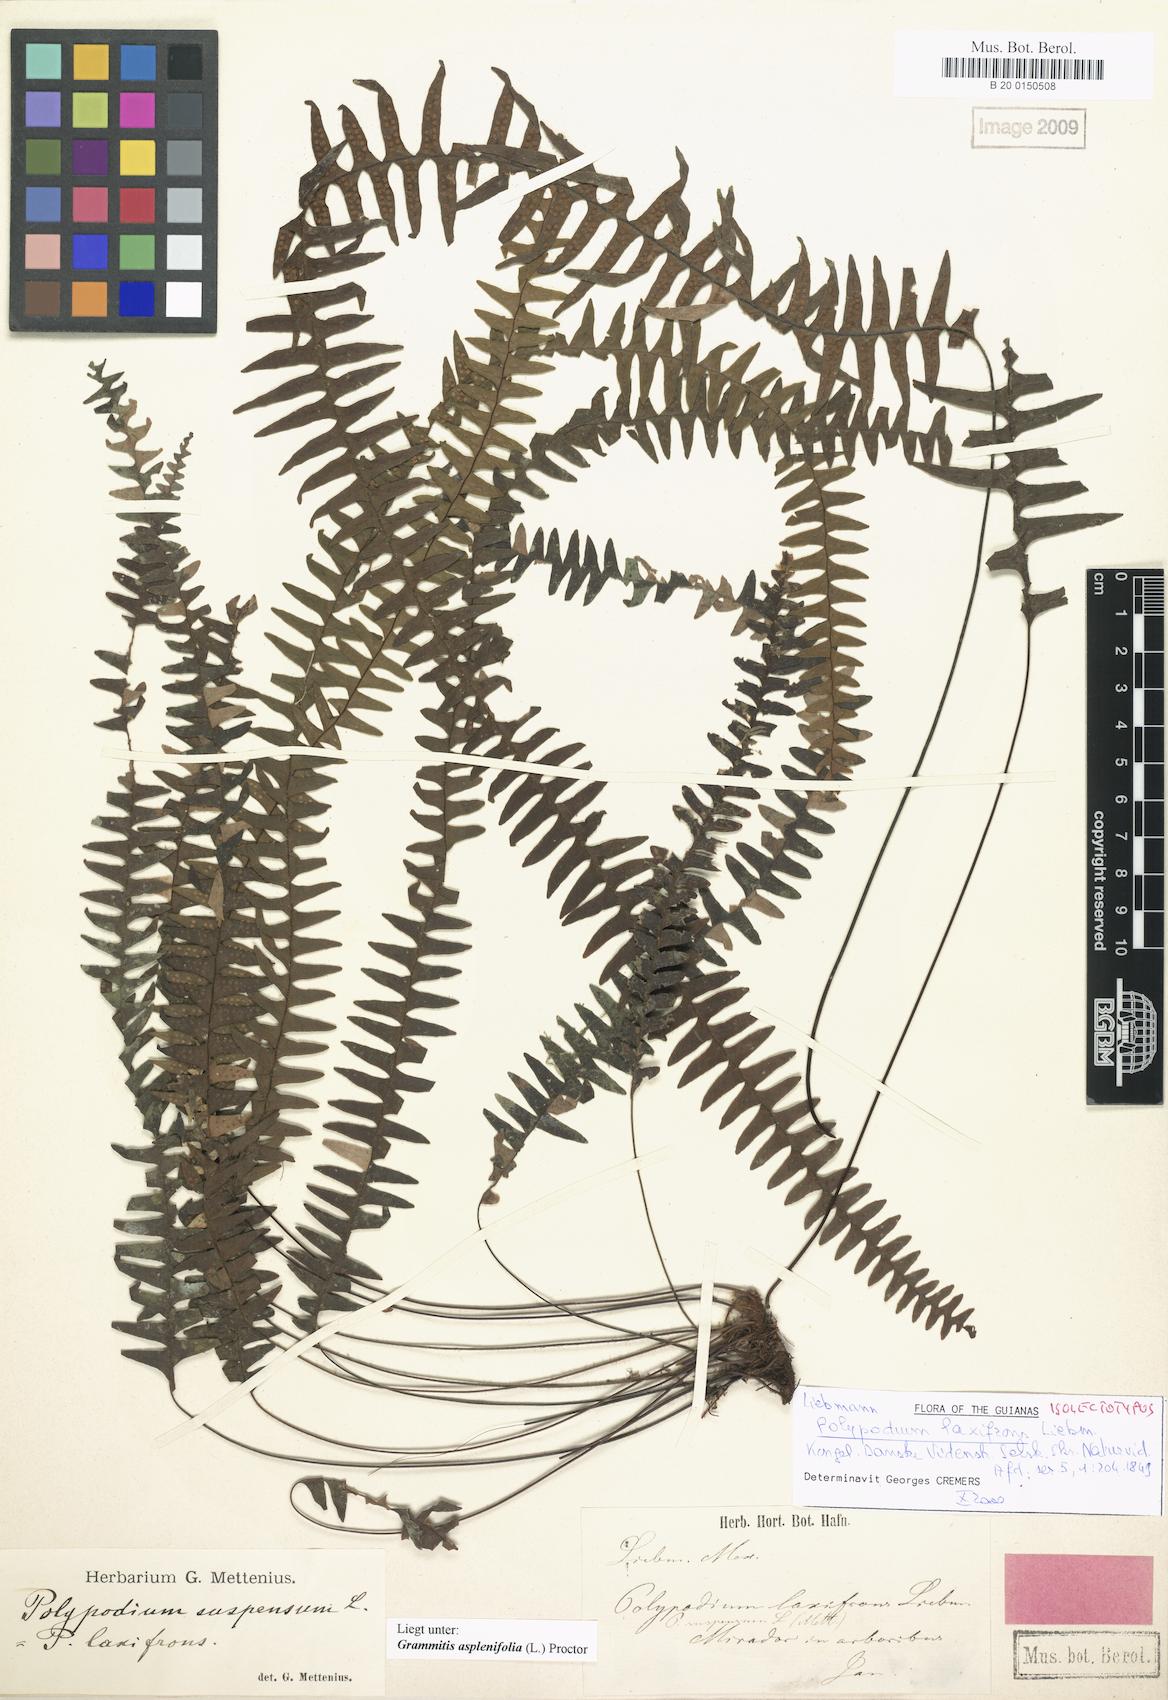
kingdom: Plantae
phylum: Tracheophyta
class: Polypodiopsida
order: Polypodiales
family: Polypodiaceae
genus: Terpsichore
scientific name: Terpsichore asplenifolia
